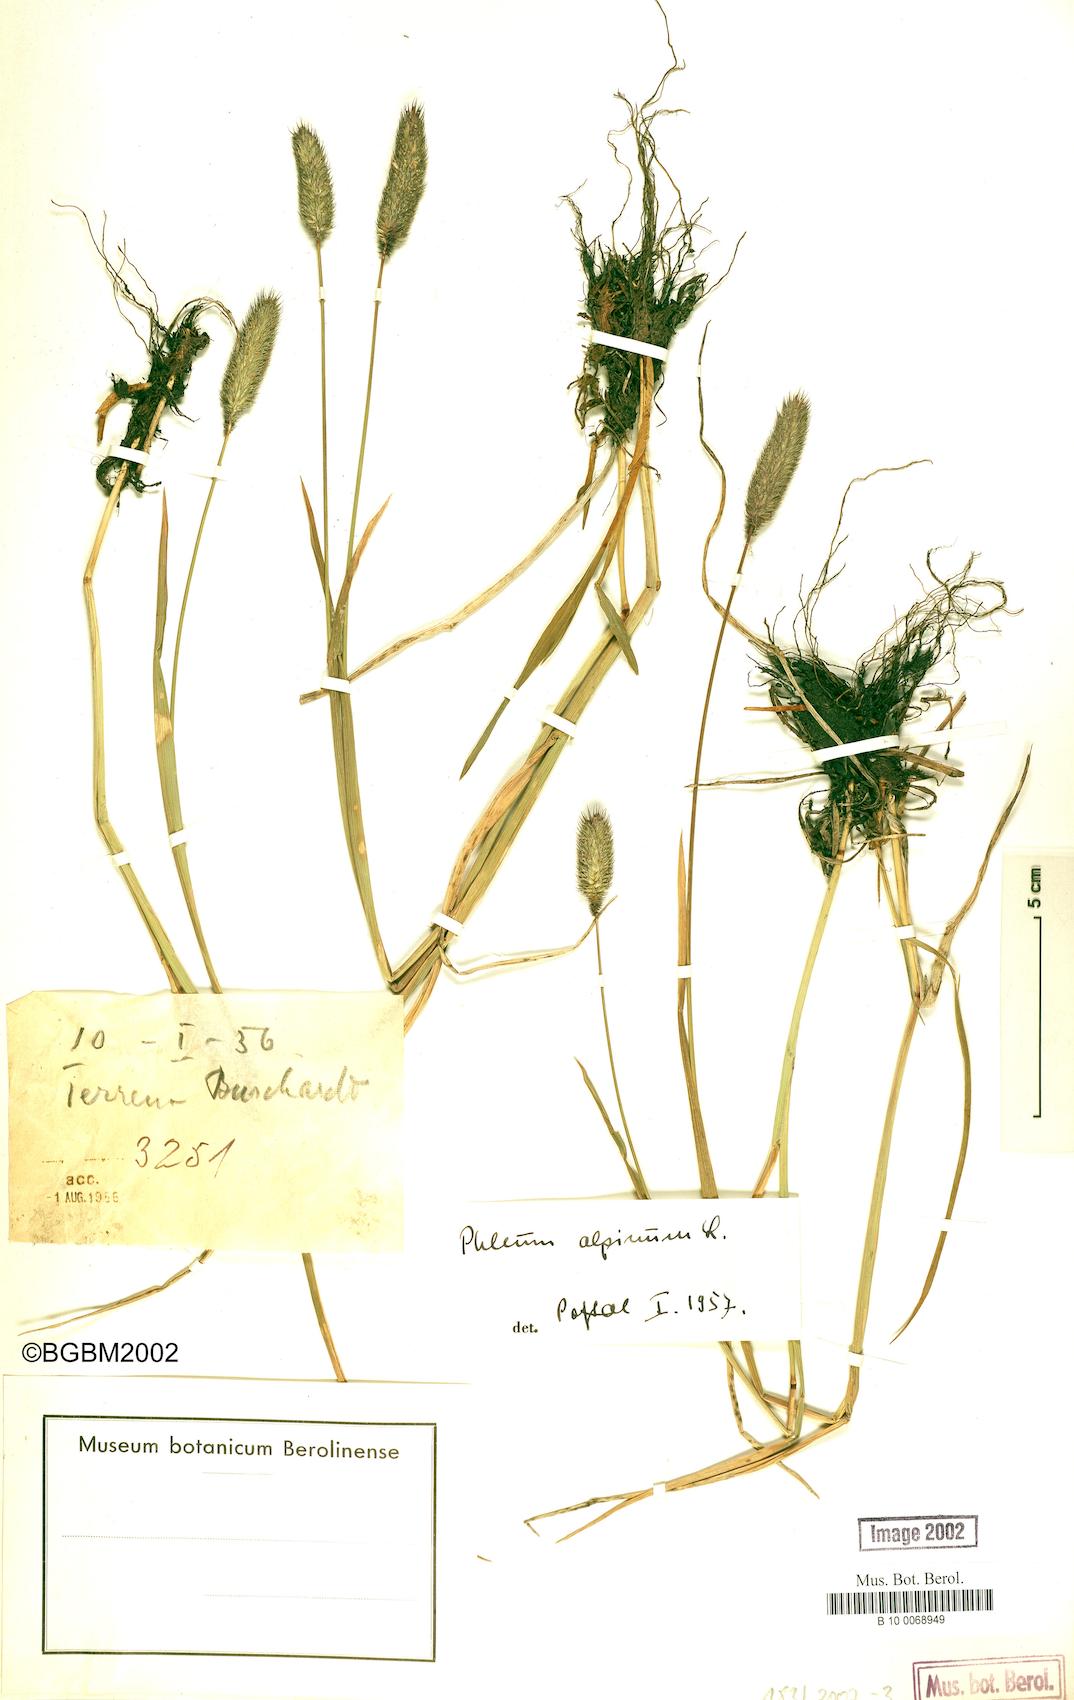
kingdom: Plantae
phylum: Tracheophyta
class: Liliopsida
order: Poales
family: Poaceae
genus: Phleum
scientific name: Phleum alpinum
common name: Alpine cat's-tail
